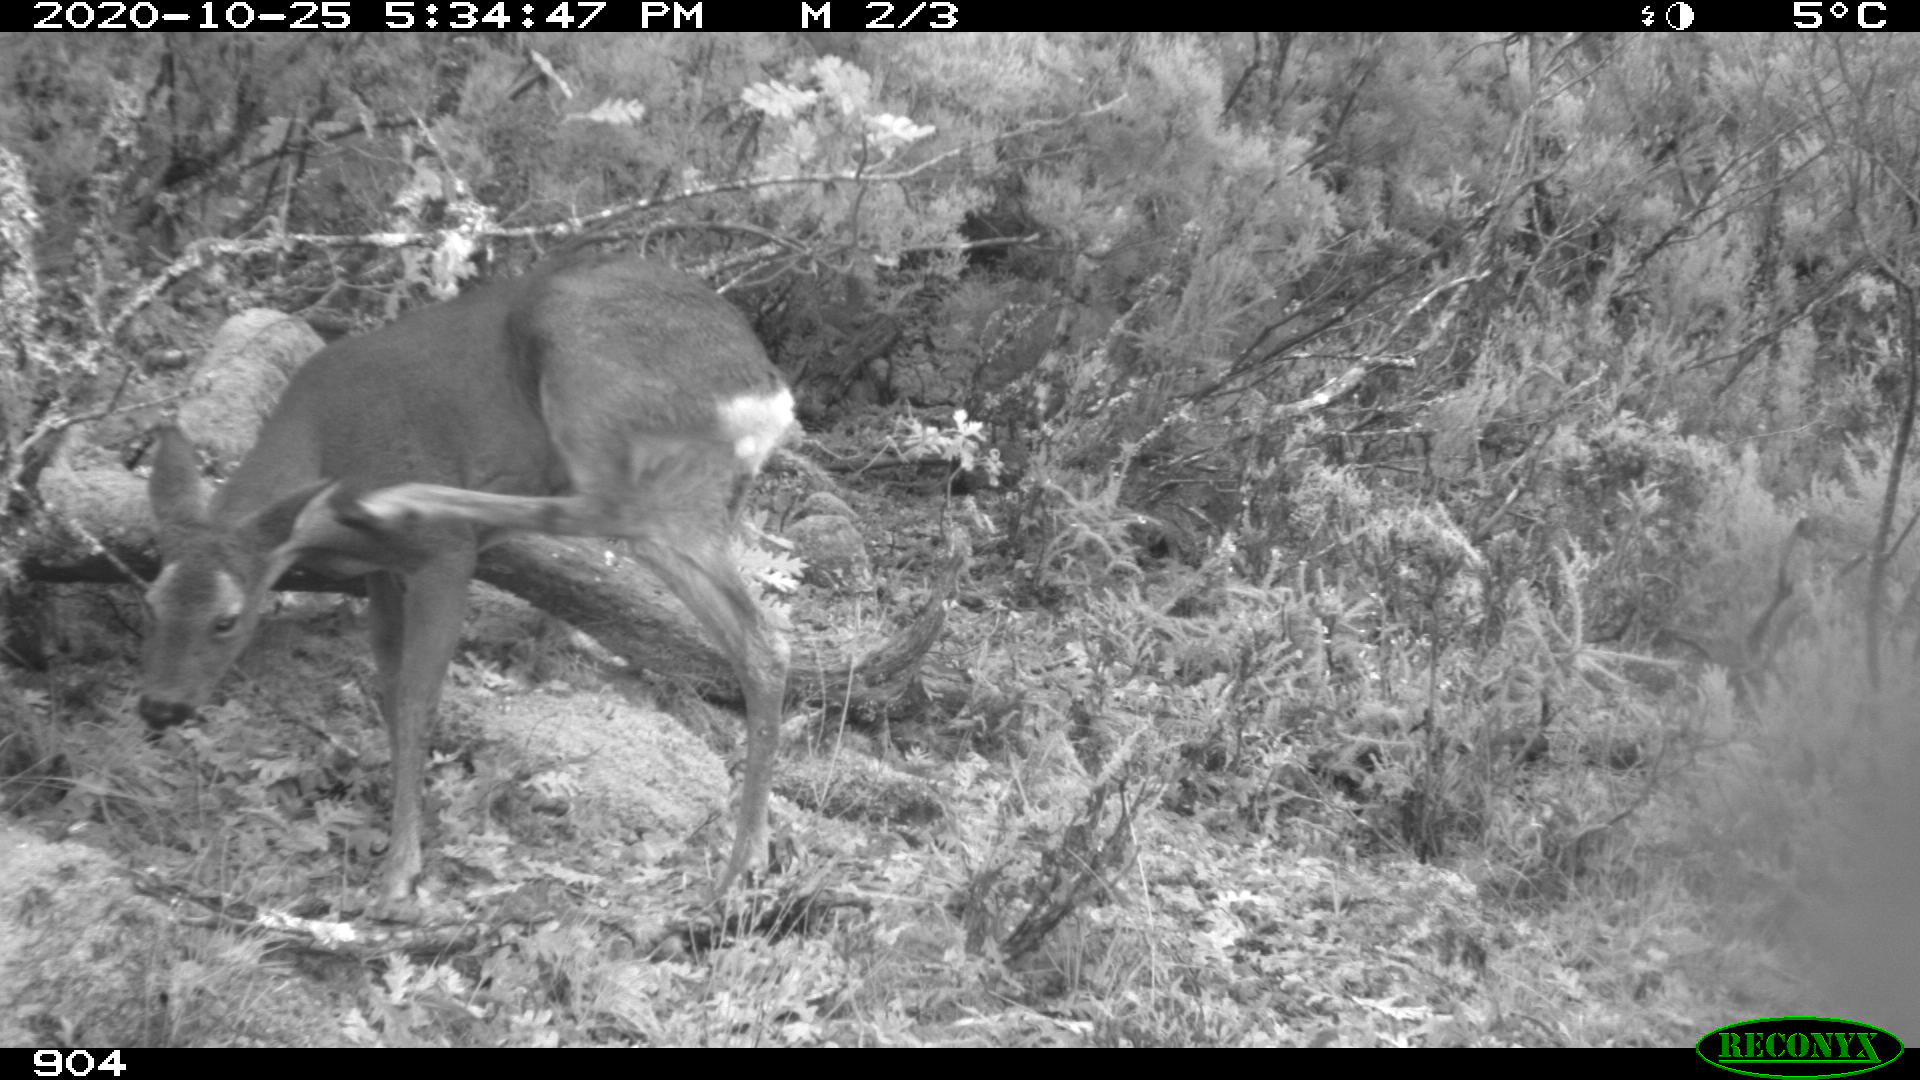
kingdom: Animalia
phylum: Chordata
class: Mammalia
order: Artiodactyla
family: Cervidae
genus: Capreolus
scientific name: Capreolus capreolus
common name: Western roe deer
